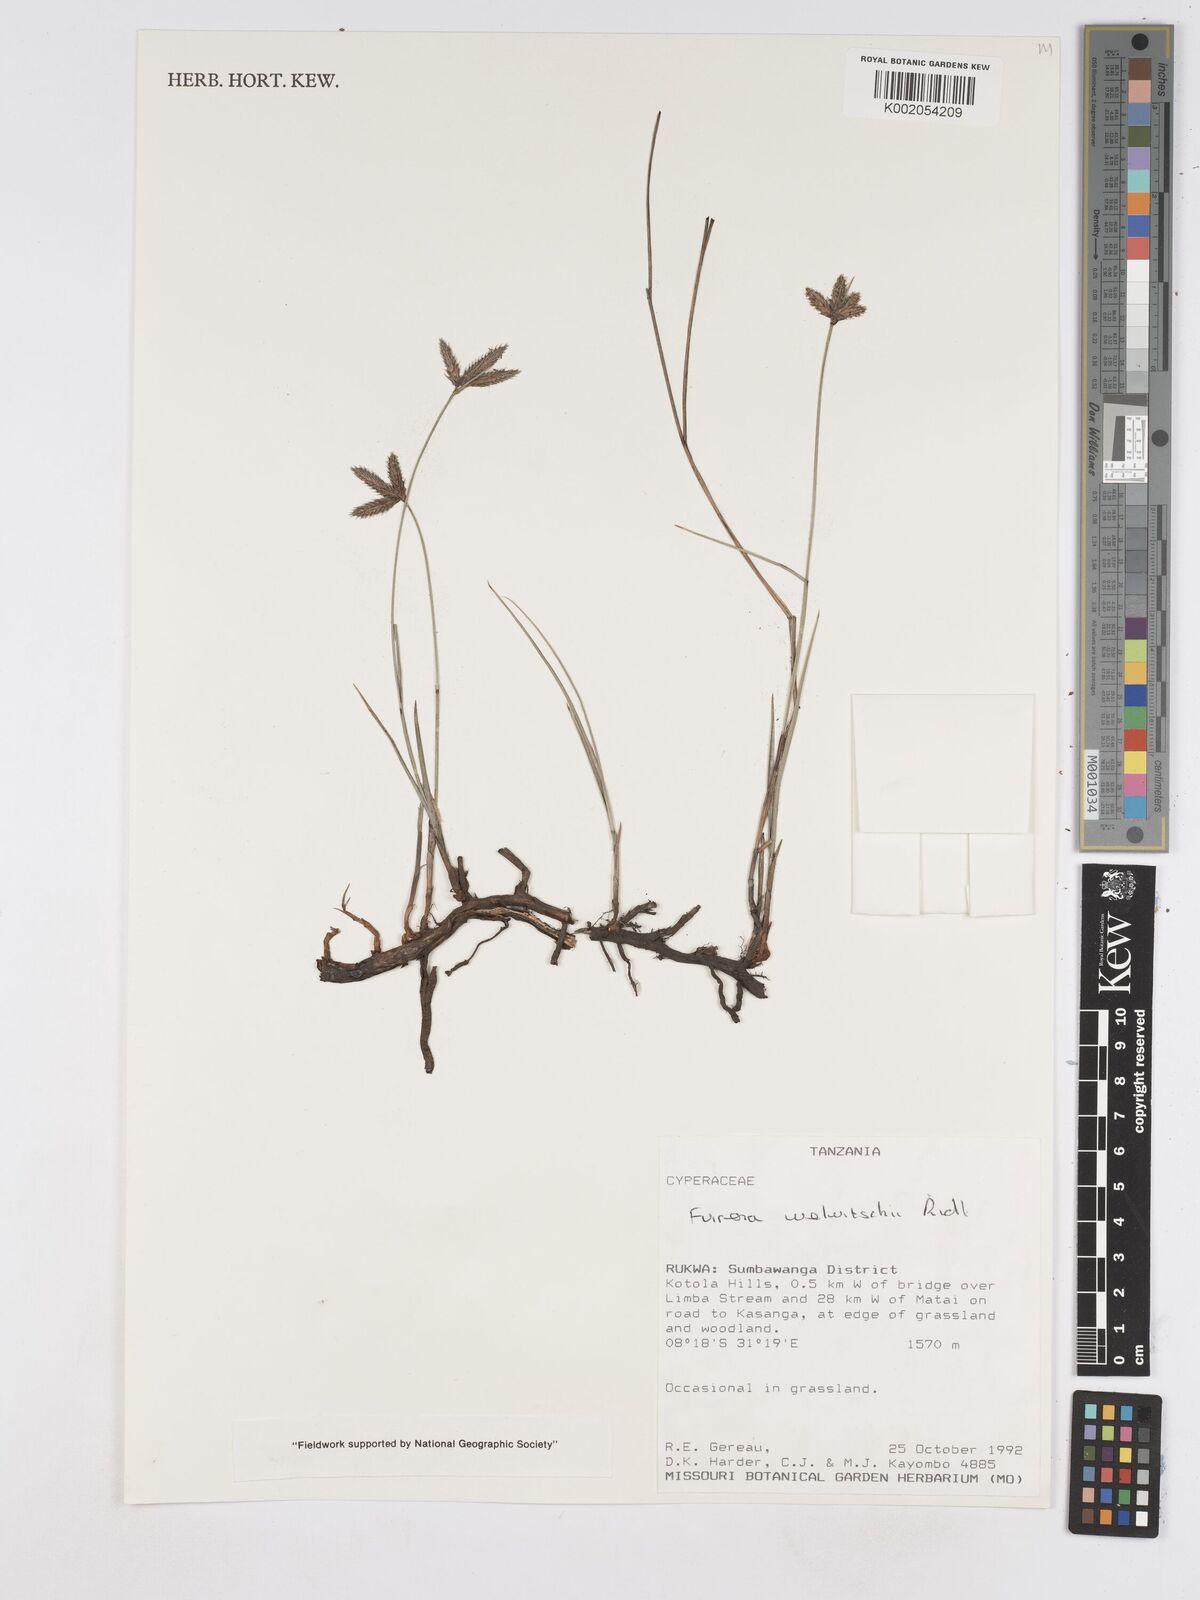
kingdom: Plantae
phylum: Tracheophyta
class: Liliopsida
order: Poales
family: Cyperaceae
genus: Fuirena
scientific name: Fuirena welwitschii
